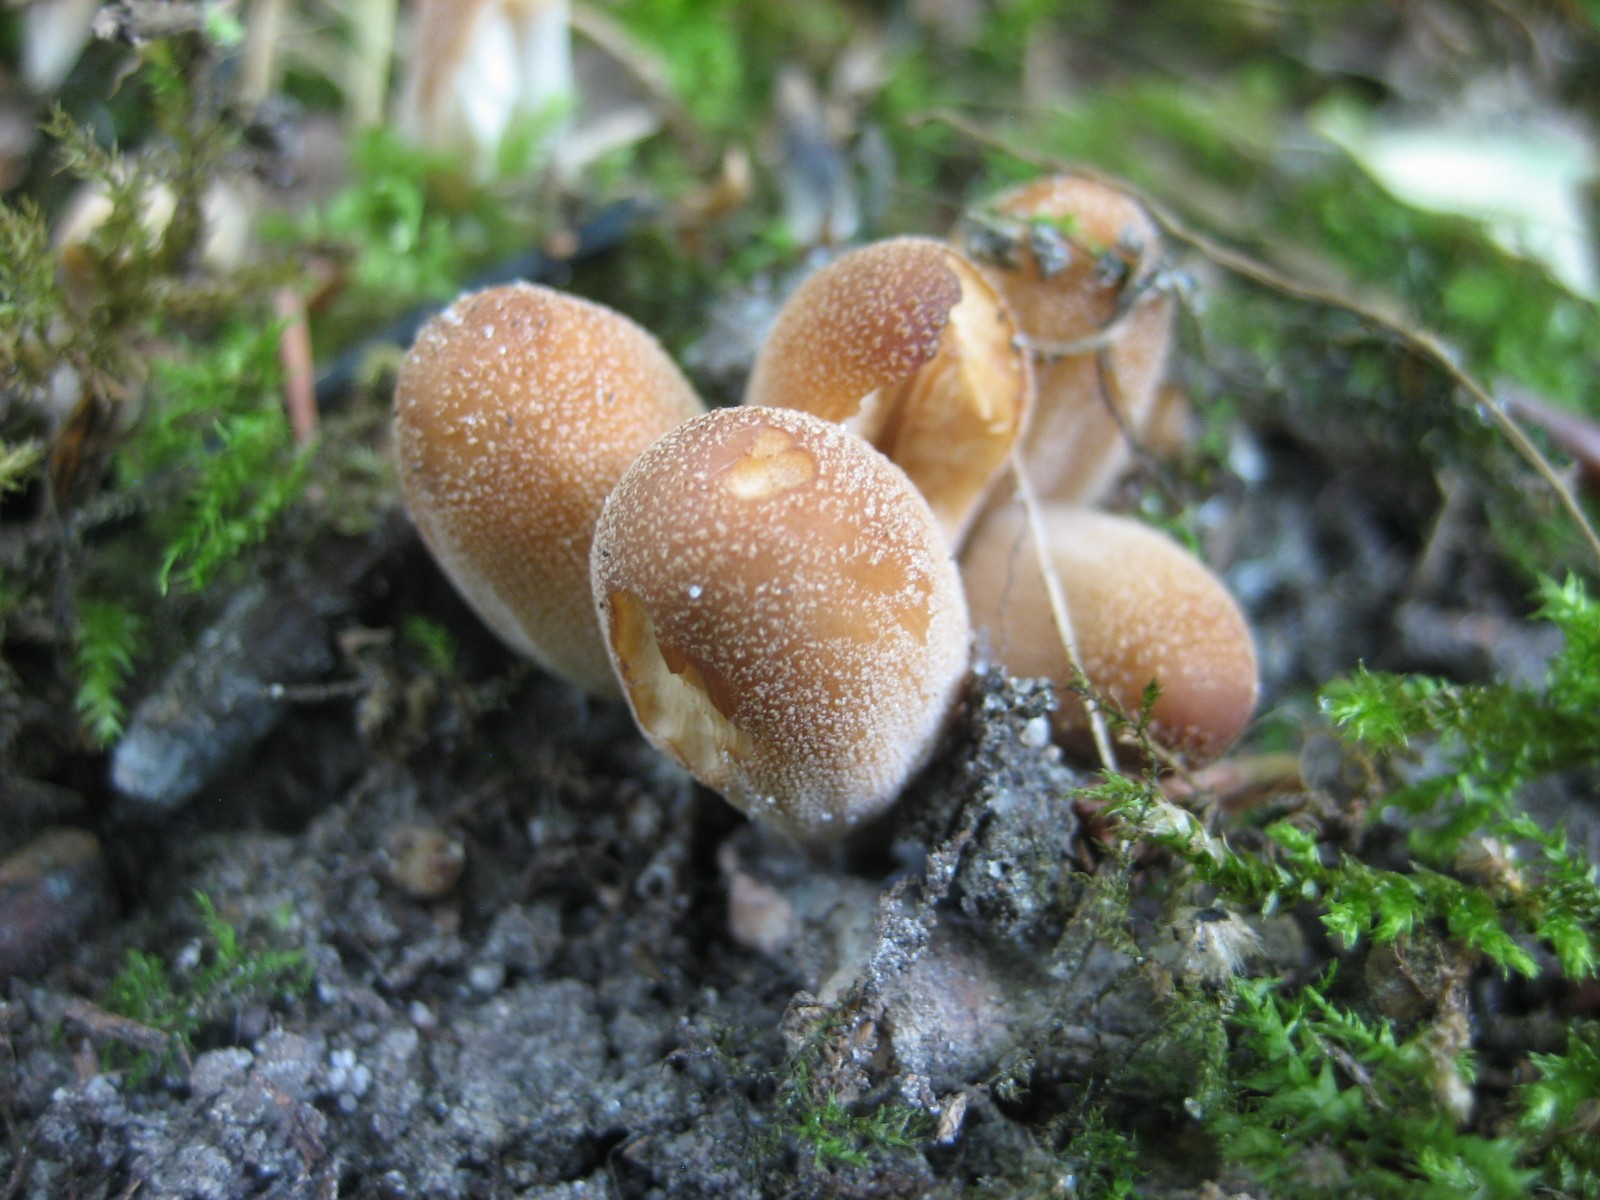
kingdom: Fungi
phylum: Basidiomycota
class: Agaricomycetes
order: Agaricales
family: Psathyrellaceae
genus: Coprinellus
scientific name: Coprinellus micaceus
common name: glimmer-blækhat
